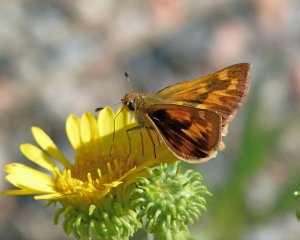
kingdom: Animalia
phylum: Arthropoda
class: Insecta
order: Lepidoptera
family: Hesperiidae
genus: Ochlodes
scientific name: Ochlodes sylvanoides
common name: Woodland Skipper
